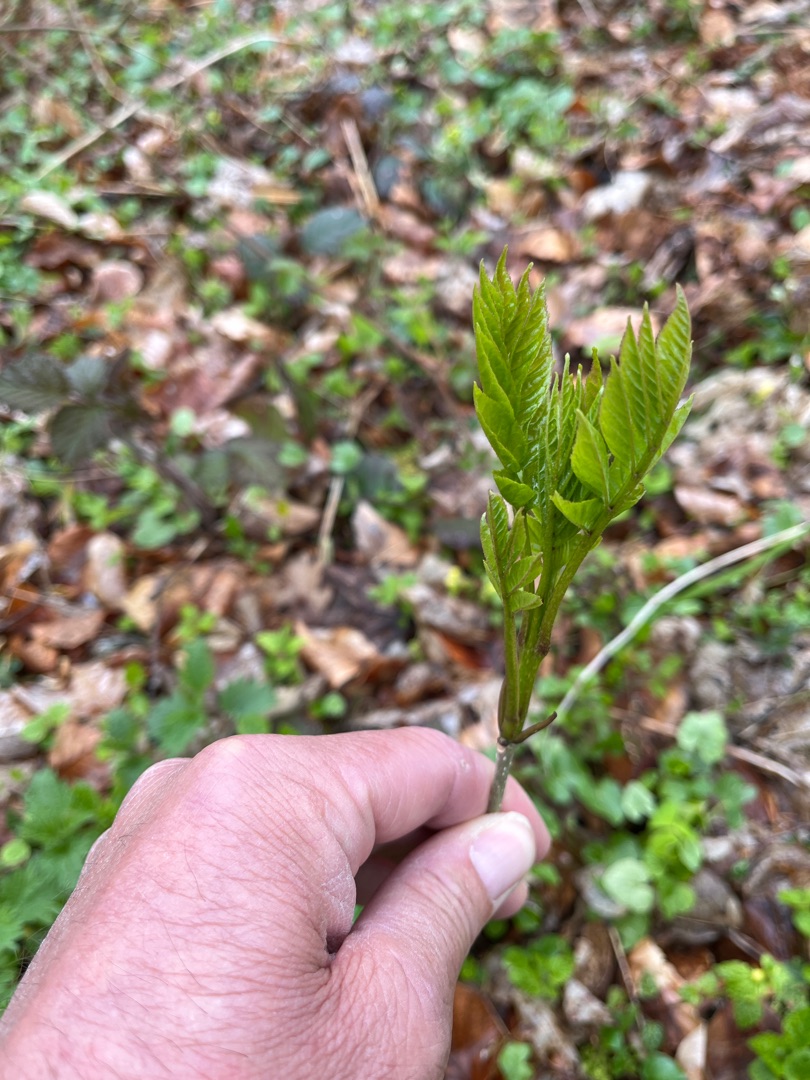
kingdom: Plantae
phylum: Tracheophyta
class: Magnoliopsida
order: Lamiales
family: Oleaceae
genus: Fraxinus
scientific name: Fraxinus excelsior
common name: Ask
